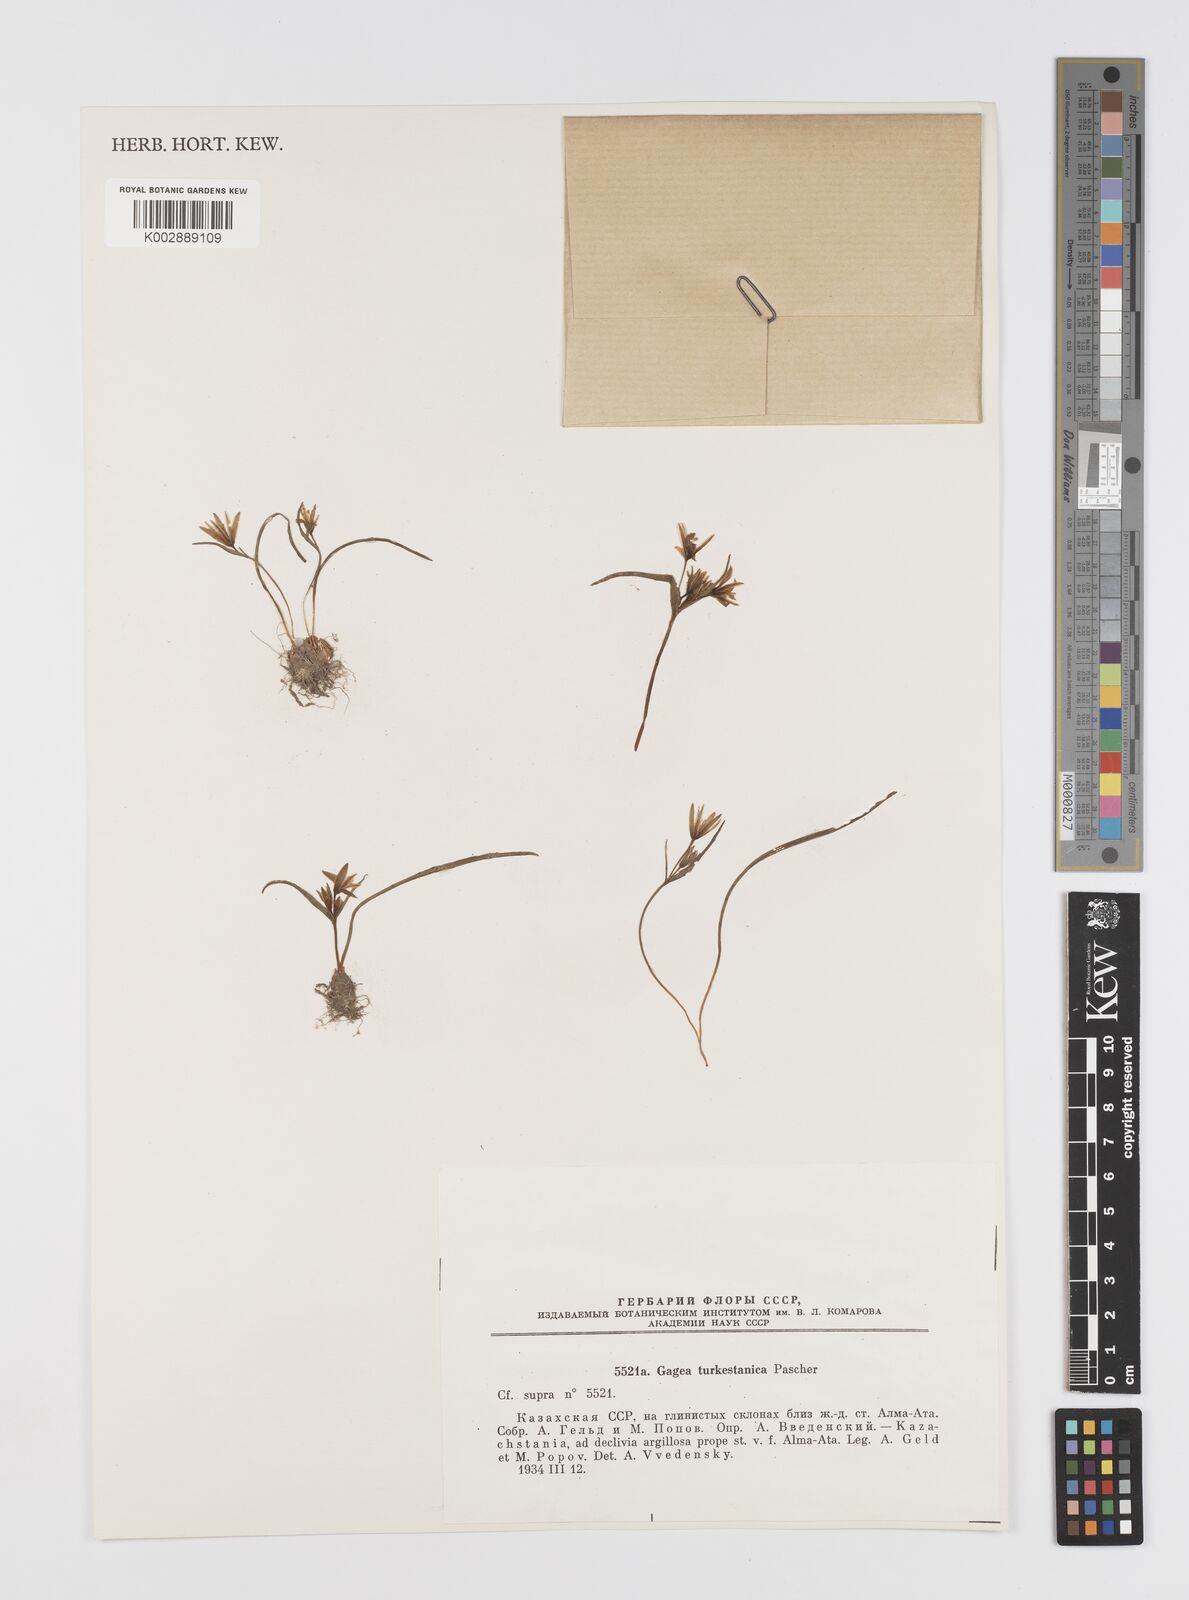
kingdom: Plantae
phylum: Tracheophyta
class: Liliopsida
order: Liliales
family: Liliaceae
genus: Gagea
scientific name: Gagea capusii
